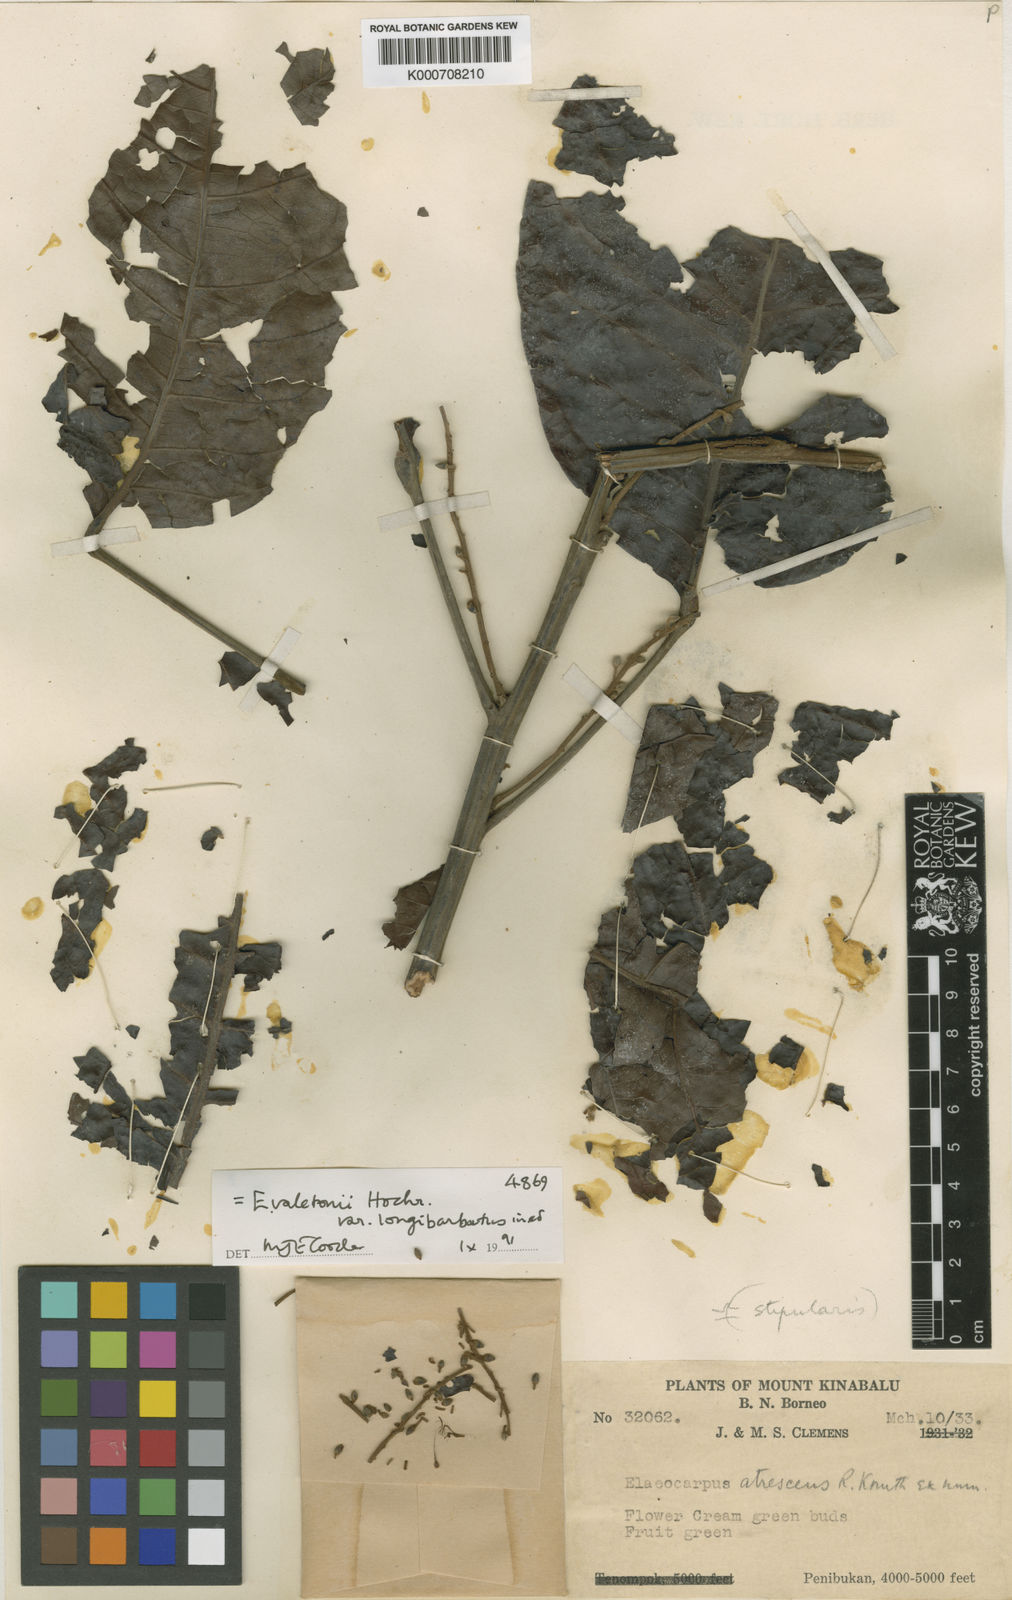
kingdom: Plantae
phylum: Tracheophyta
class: Magnoliopsida
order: Oxalidales
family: Elaeocarpaceae
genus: Elaeocarpus
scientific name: Elaeocarpus valetonii
